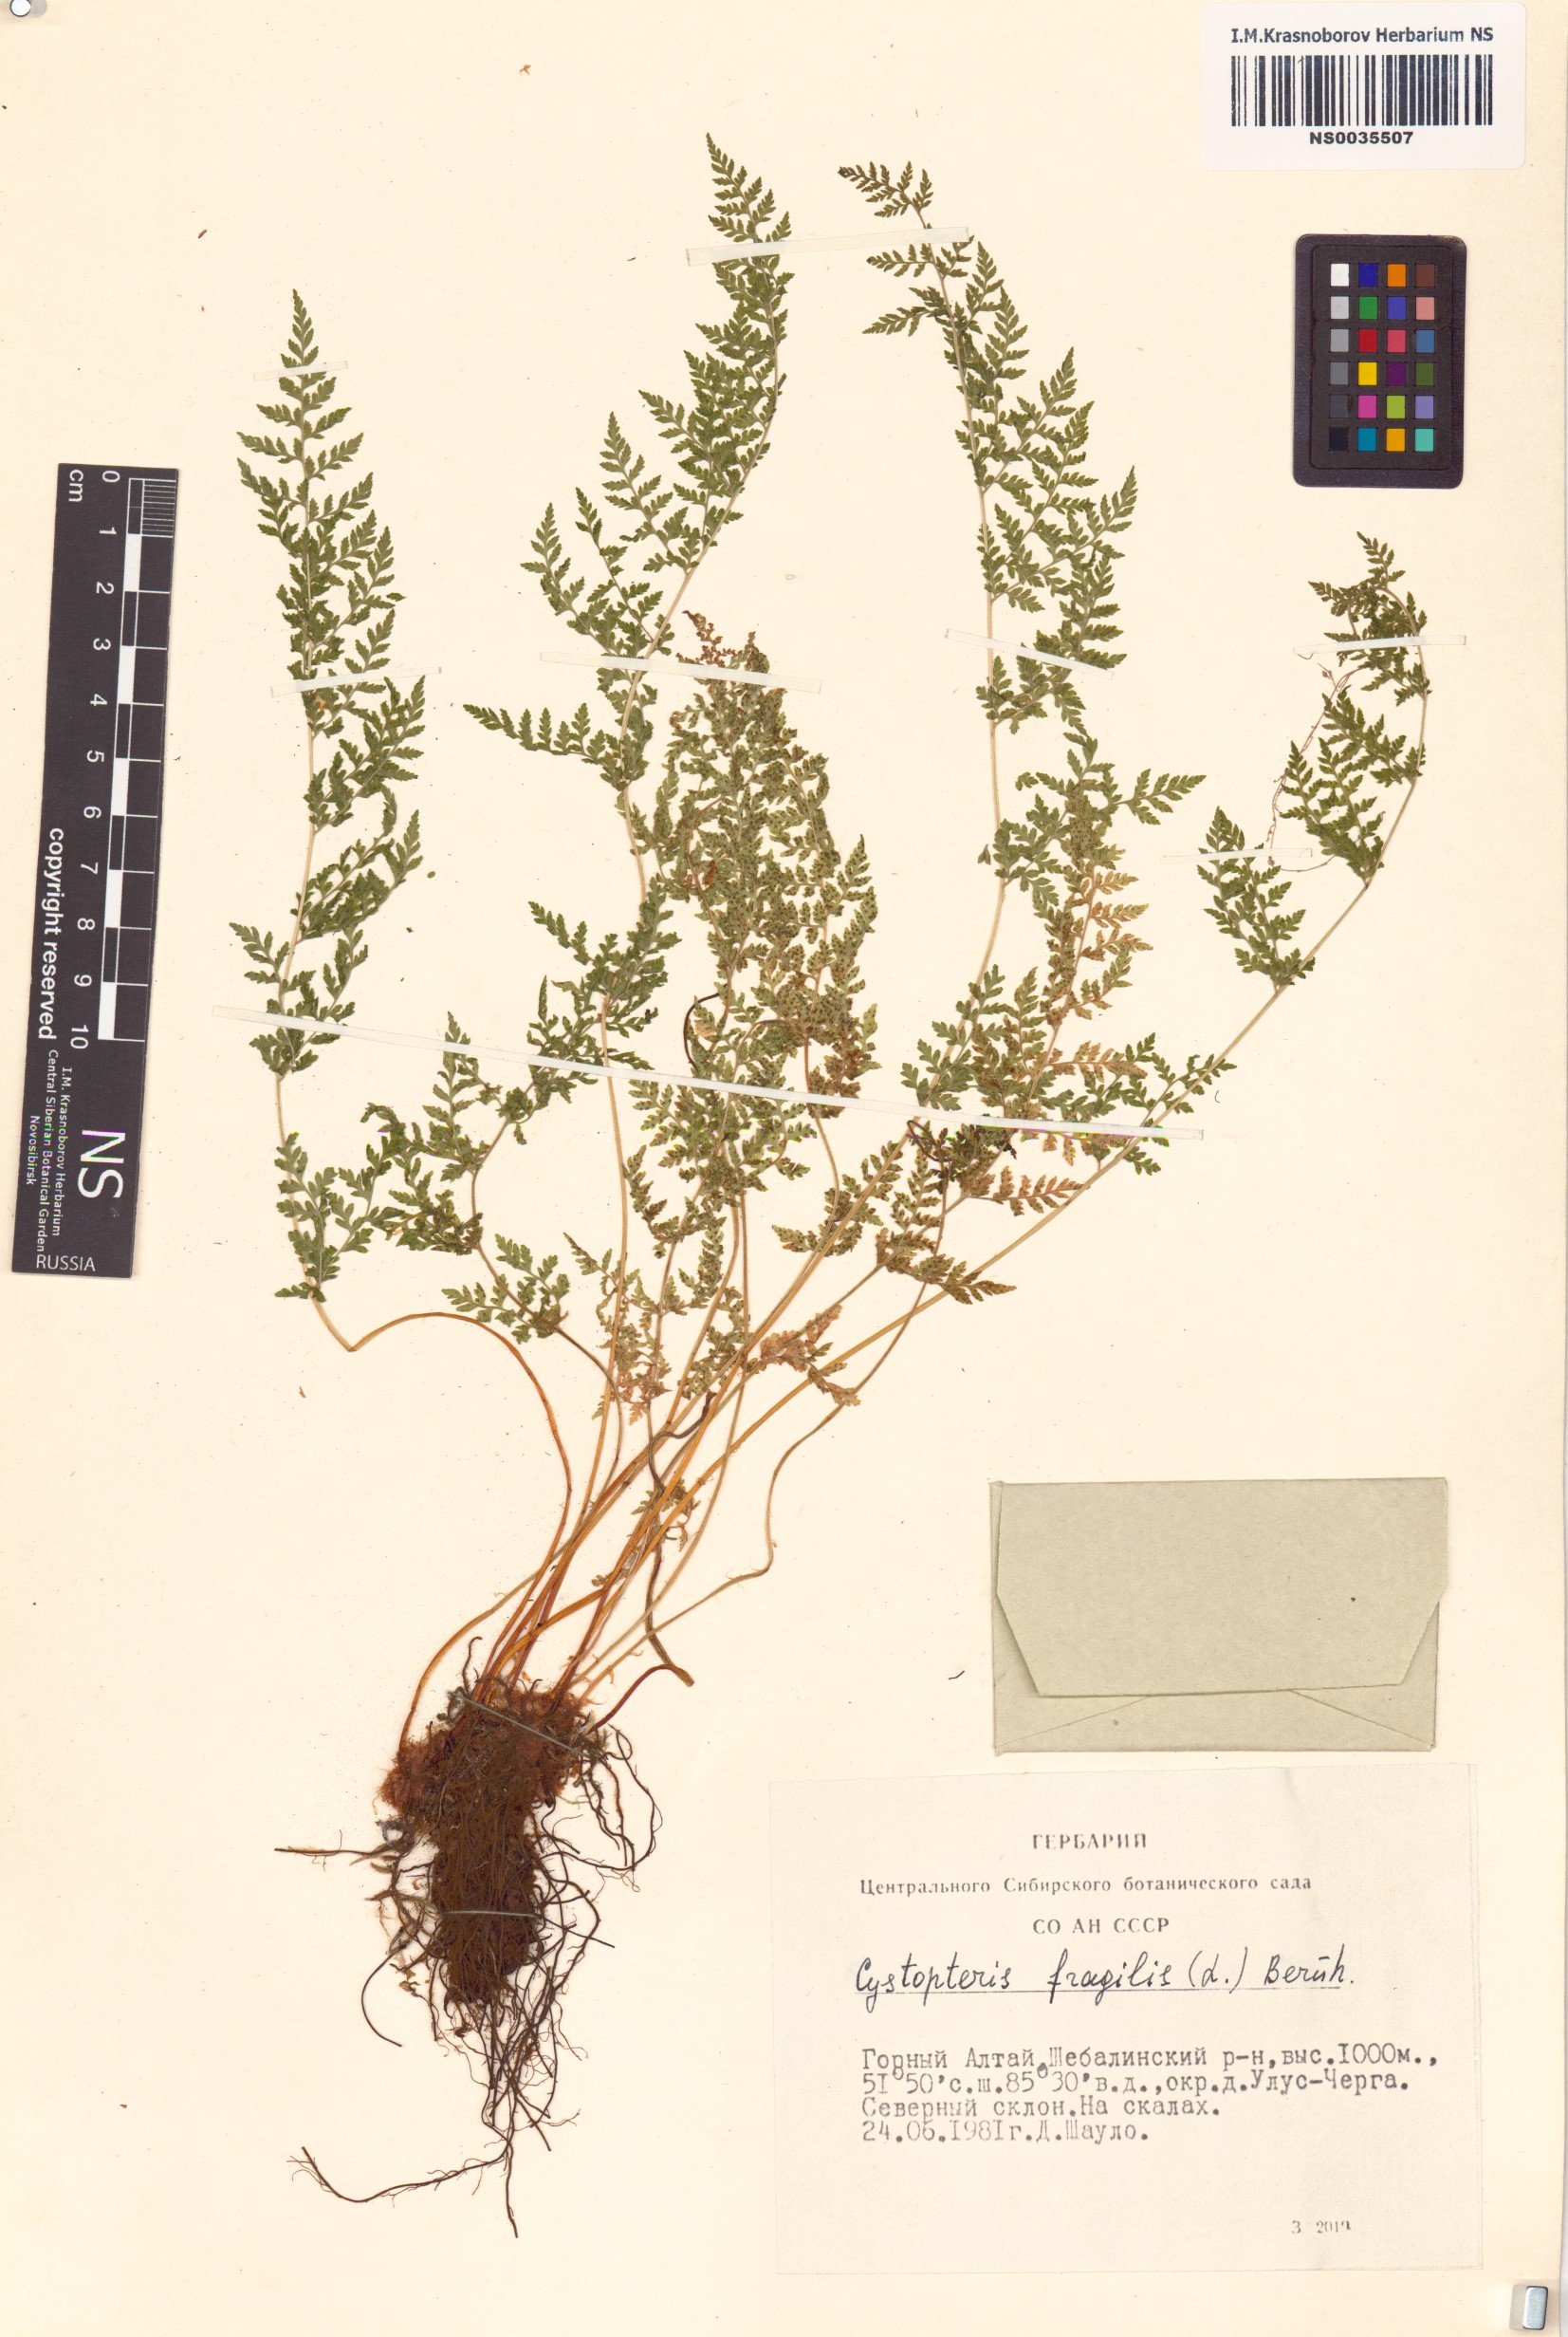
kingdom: Plantae
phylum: Tracheophyta
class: Polypodiopsida
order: Polypodiales
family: Cystopteridaceae
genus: Cystopteris
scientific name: Cystopteris fragilis
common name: Brittle bladder fern
